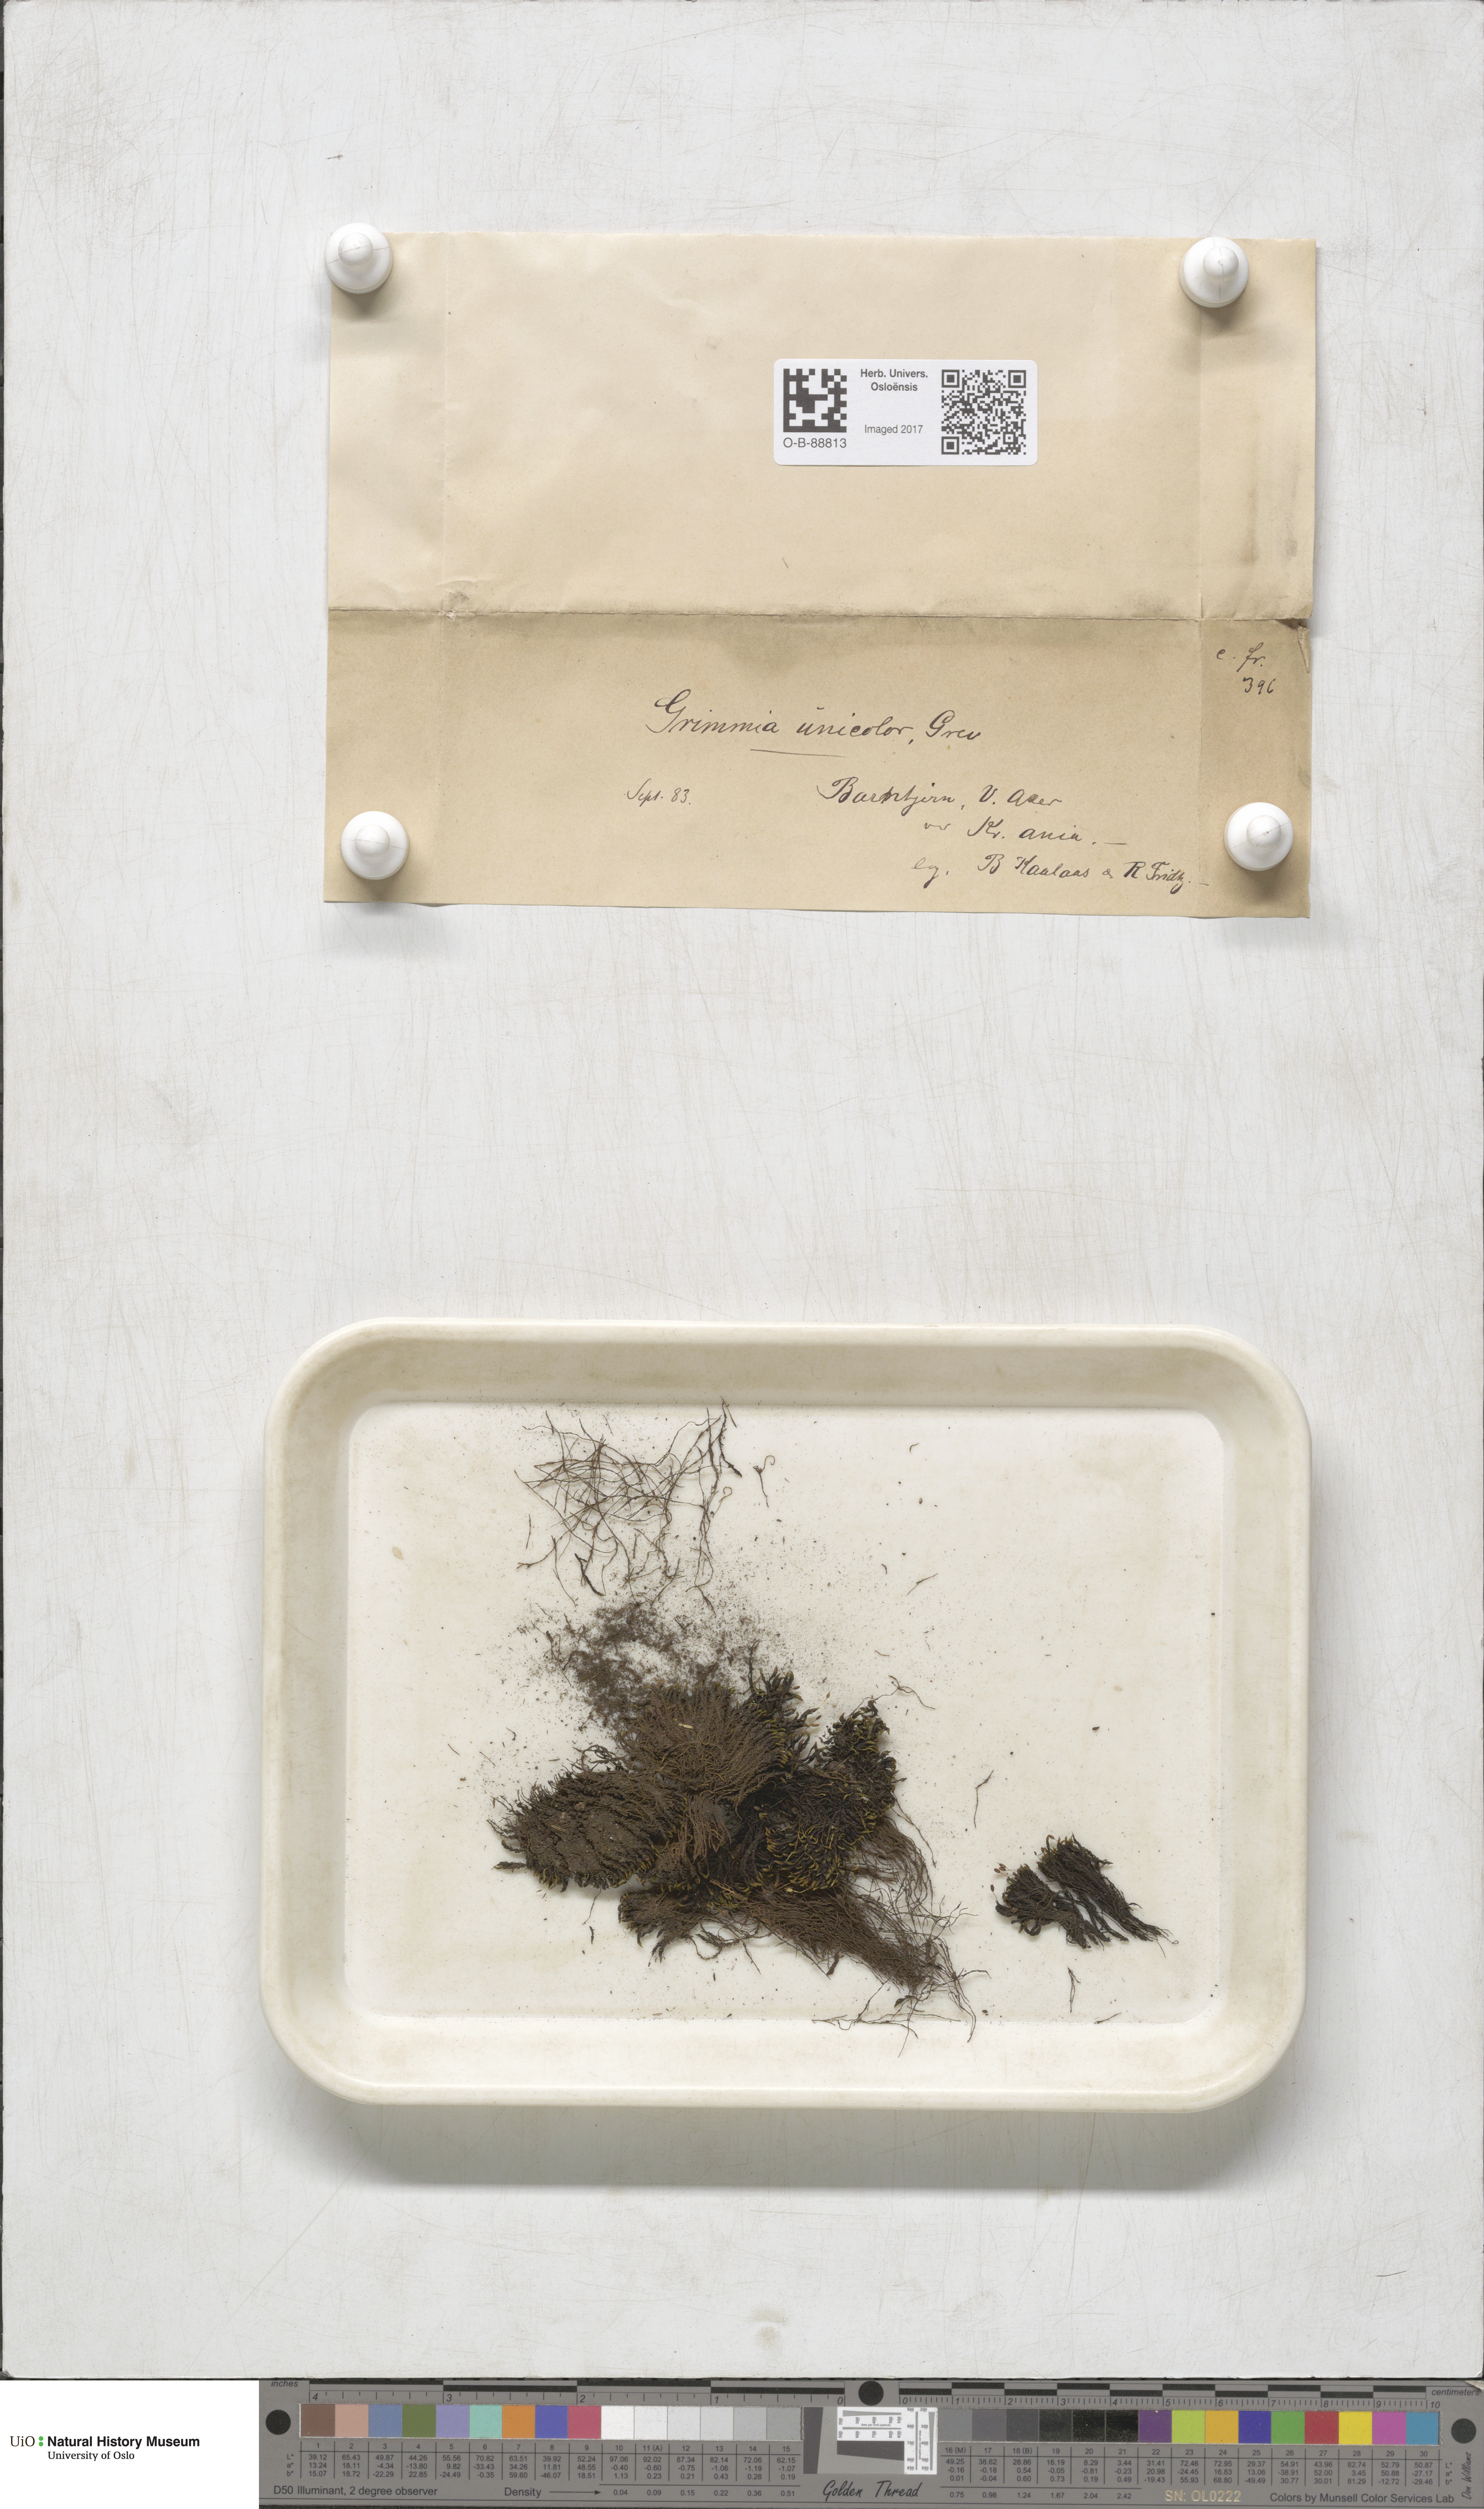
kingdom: Plantae
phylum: Bryophyta
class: Bryopsida
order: Grimmiales
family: Grimmiaceae
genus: Grimmia
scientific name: Grimmia unicolor
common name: Dingy grimmia
